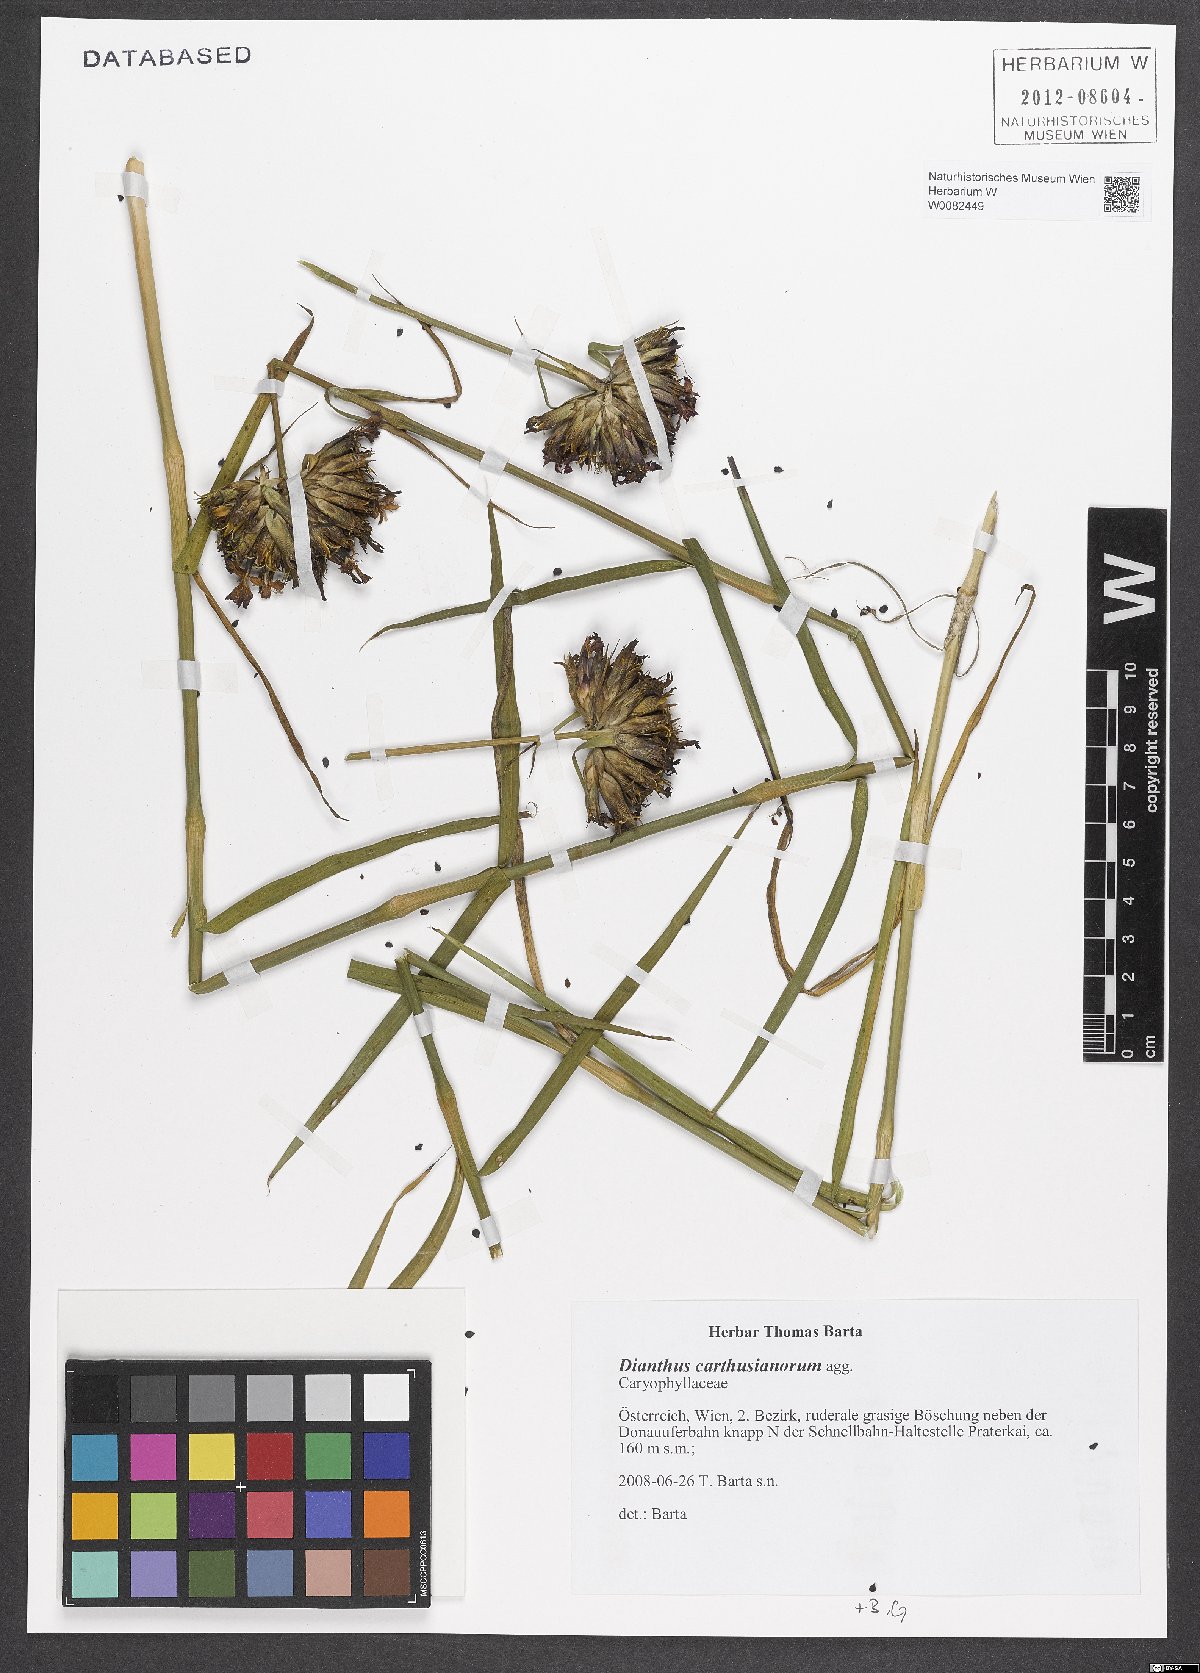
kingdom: Plantae
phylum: Tracheophyta
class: Magnoliopsida
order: Caryophyllales
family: Caryophyllaceae
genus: Dianthus
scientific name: Dianthus carthusianorum
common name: Carthusian pink
